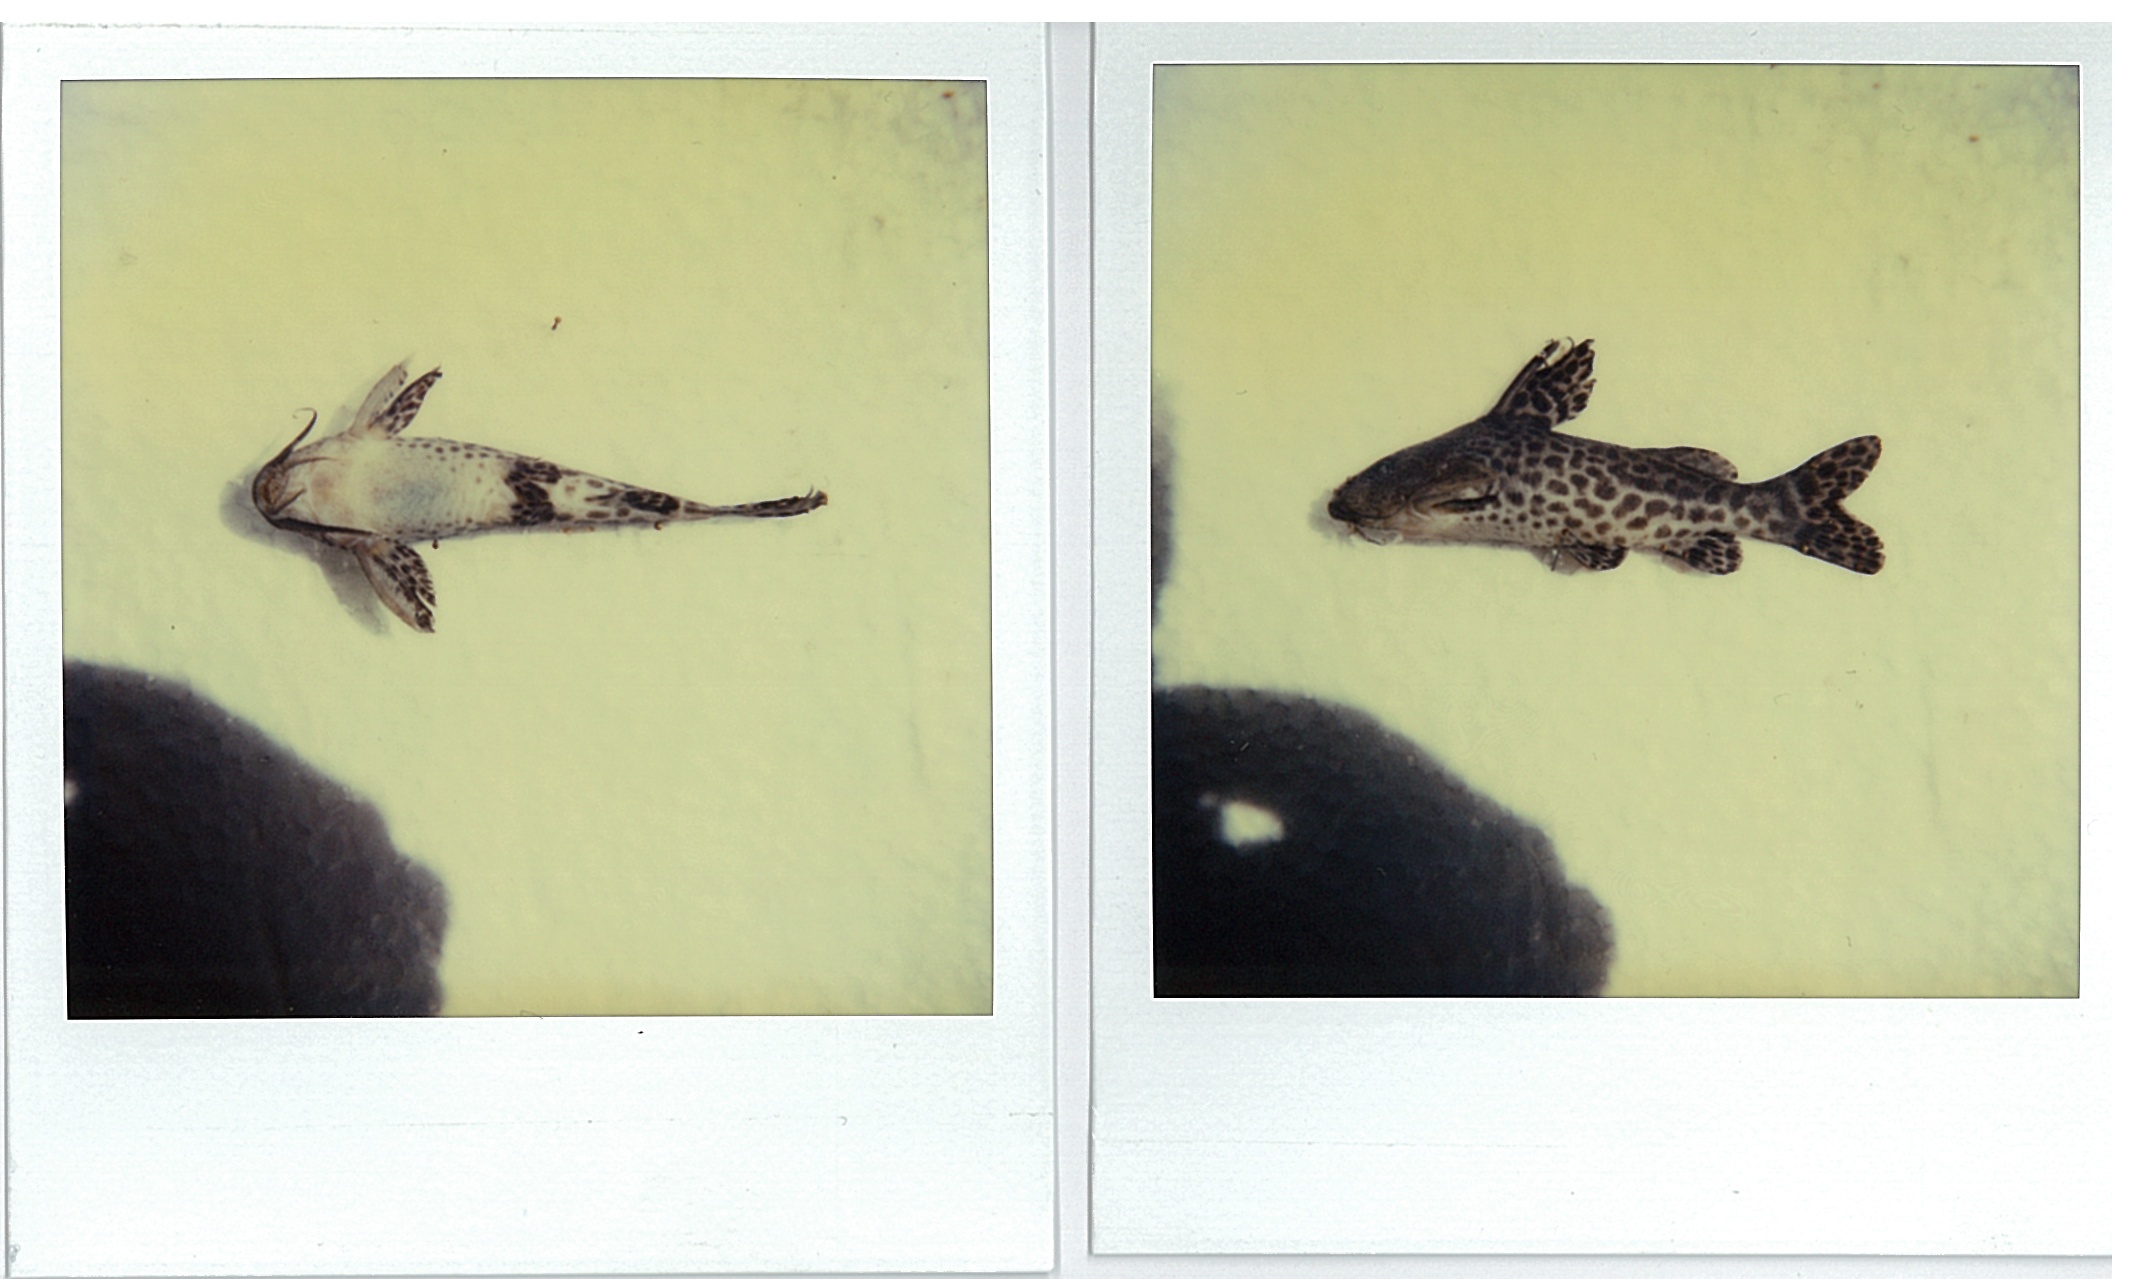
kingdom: Animalia
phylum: Chordata
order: Siluriformes
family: Mochokidae
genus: Synodontis
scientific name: Synodontis macrostigma
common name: Largespot squeaker
